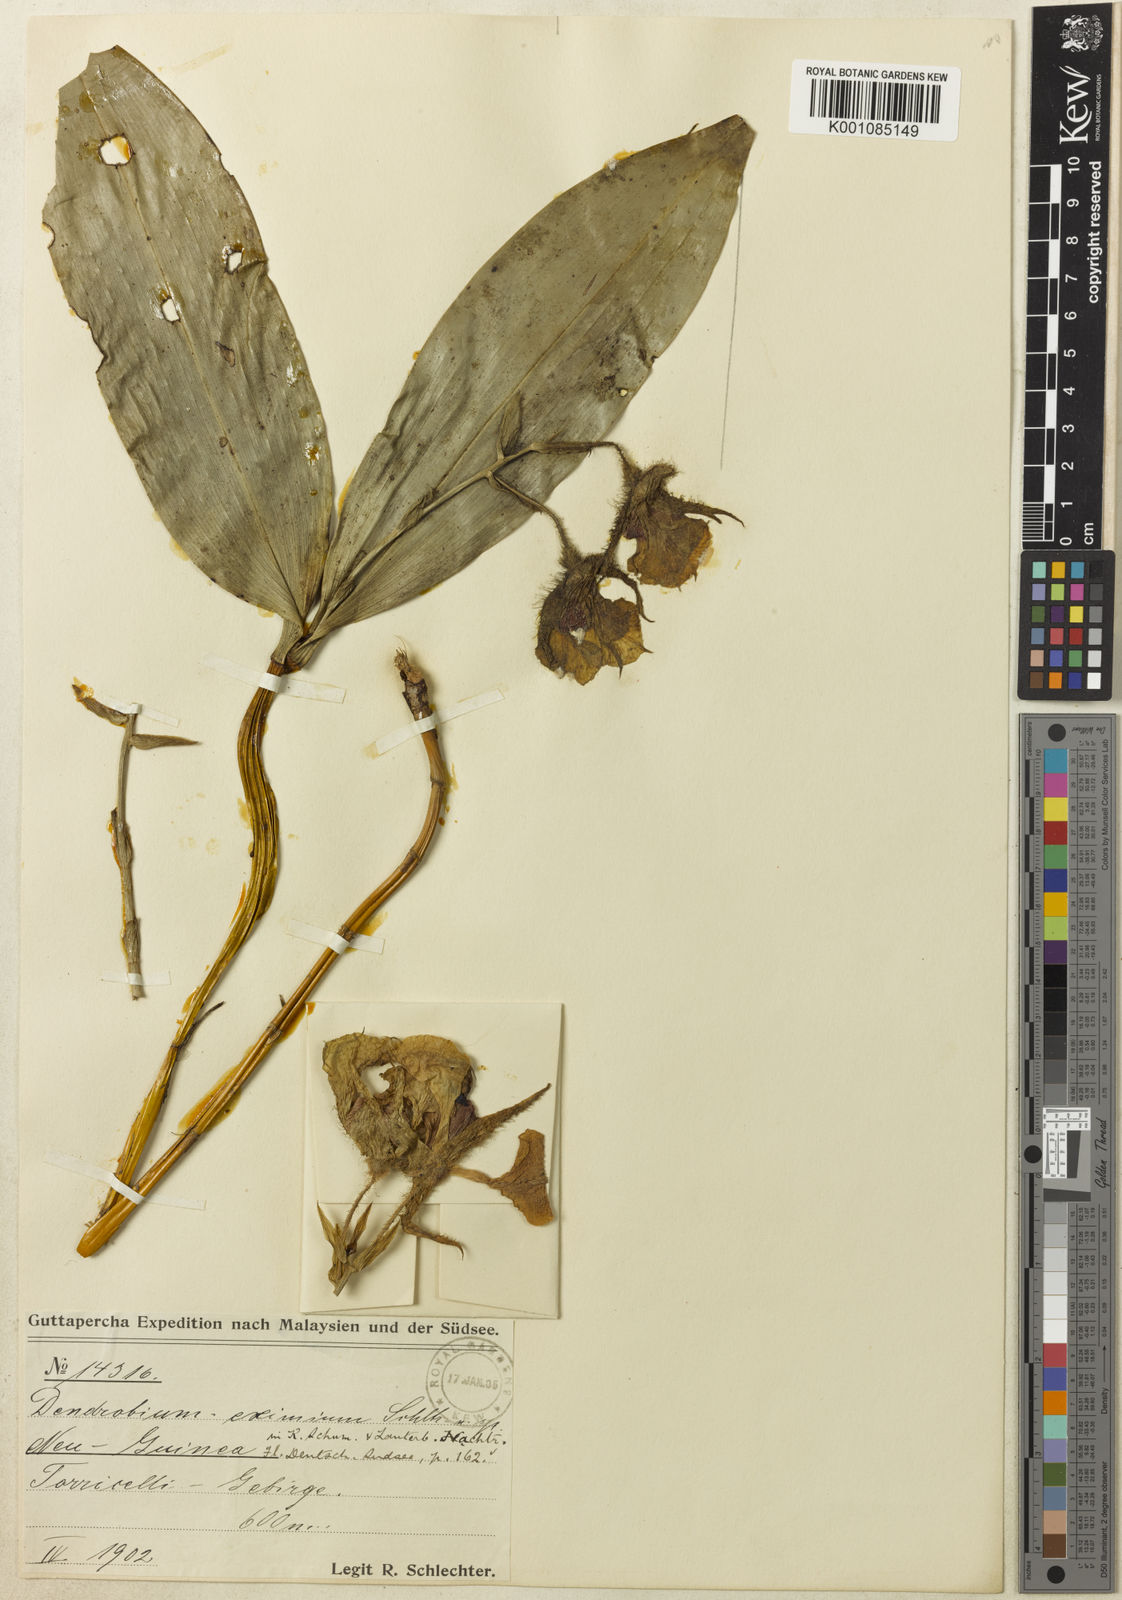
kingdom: Plantae
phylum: Tracheophyta
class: Liliopsida
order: Asparagales
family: Orchidaceae
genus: Dendrobium
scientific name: Dendrobium eximium
